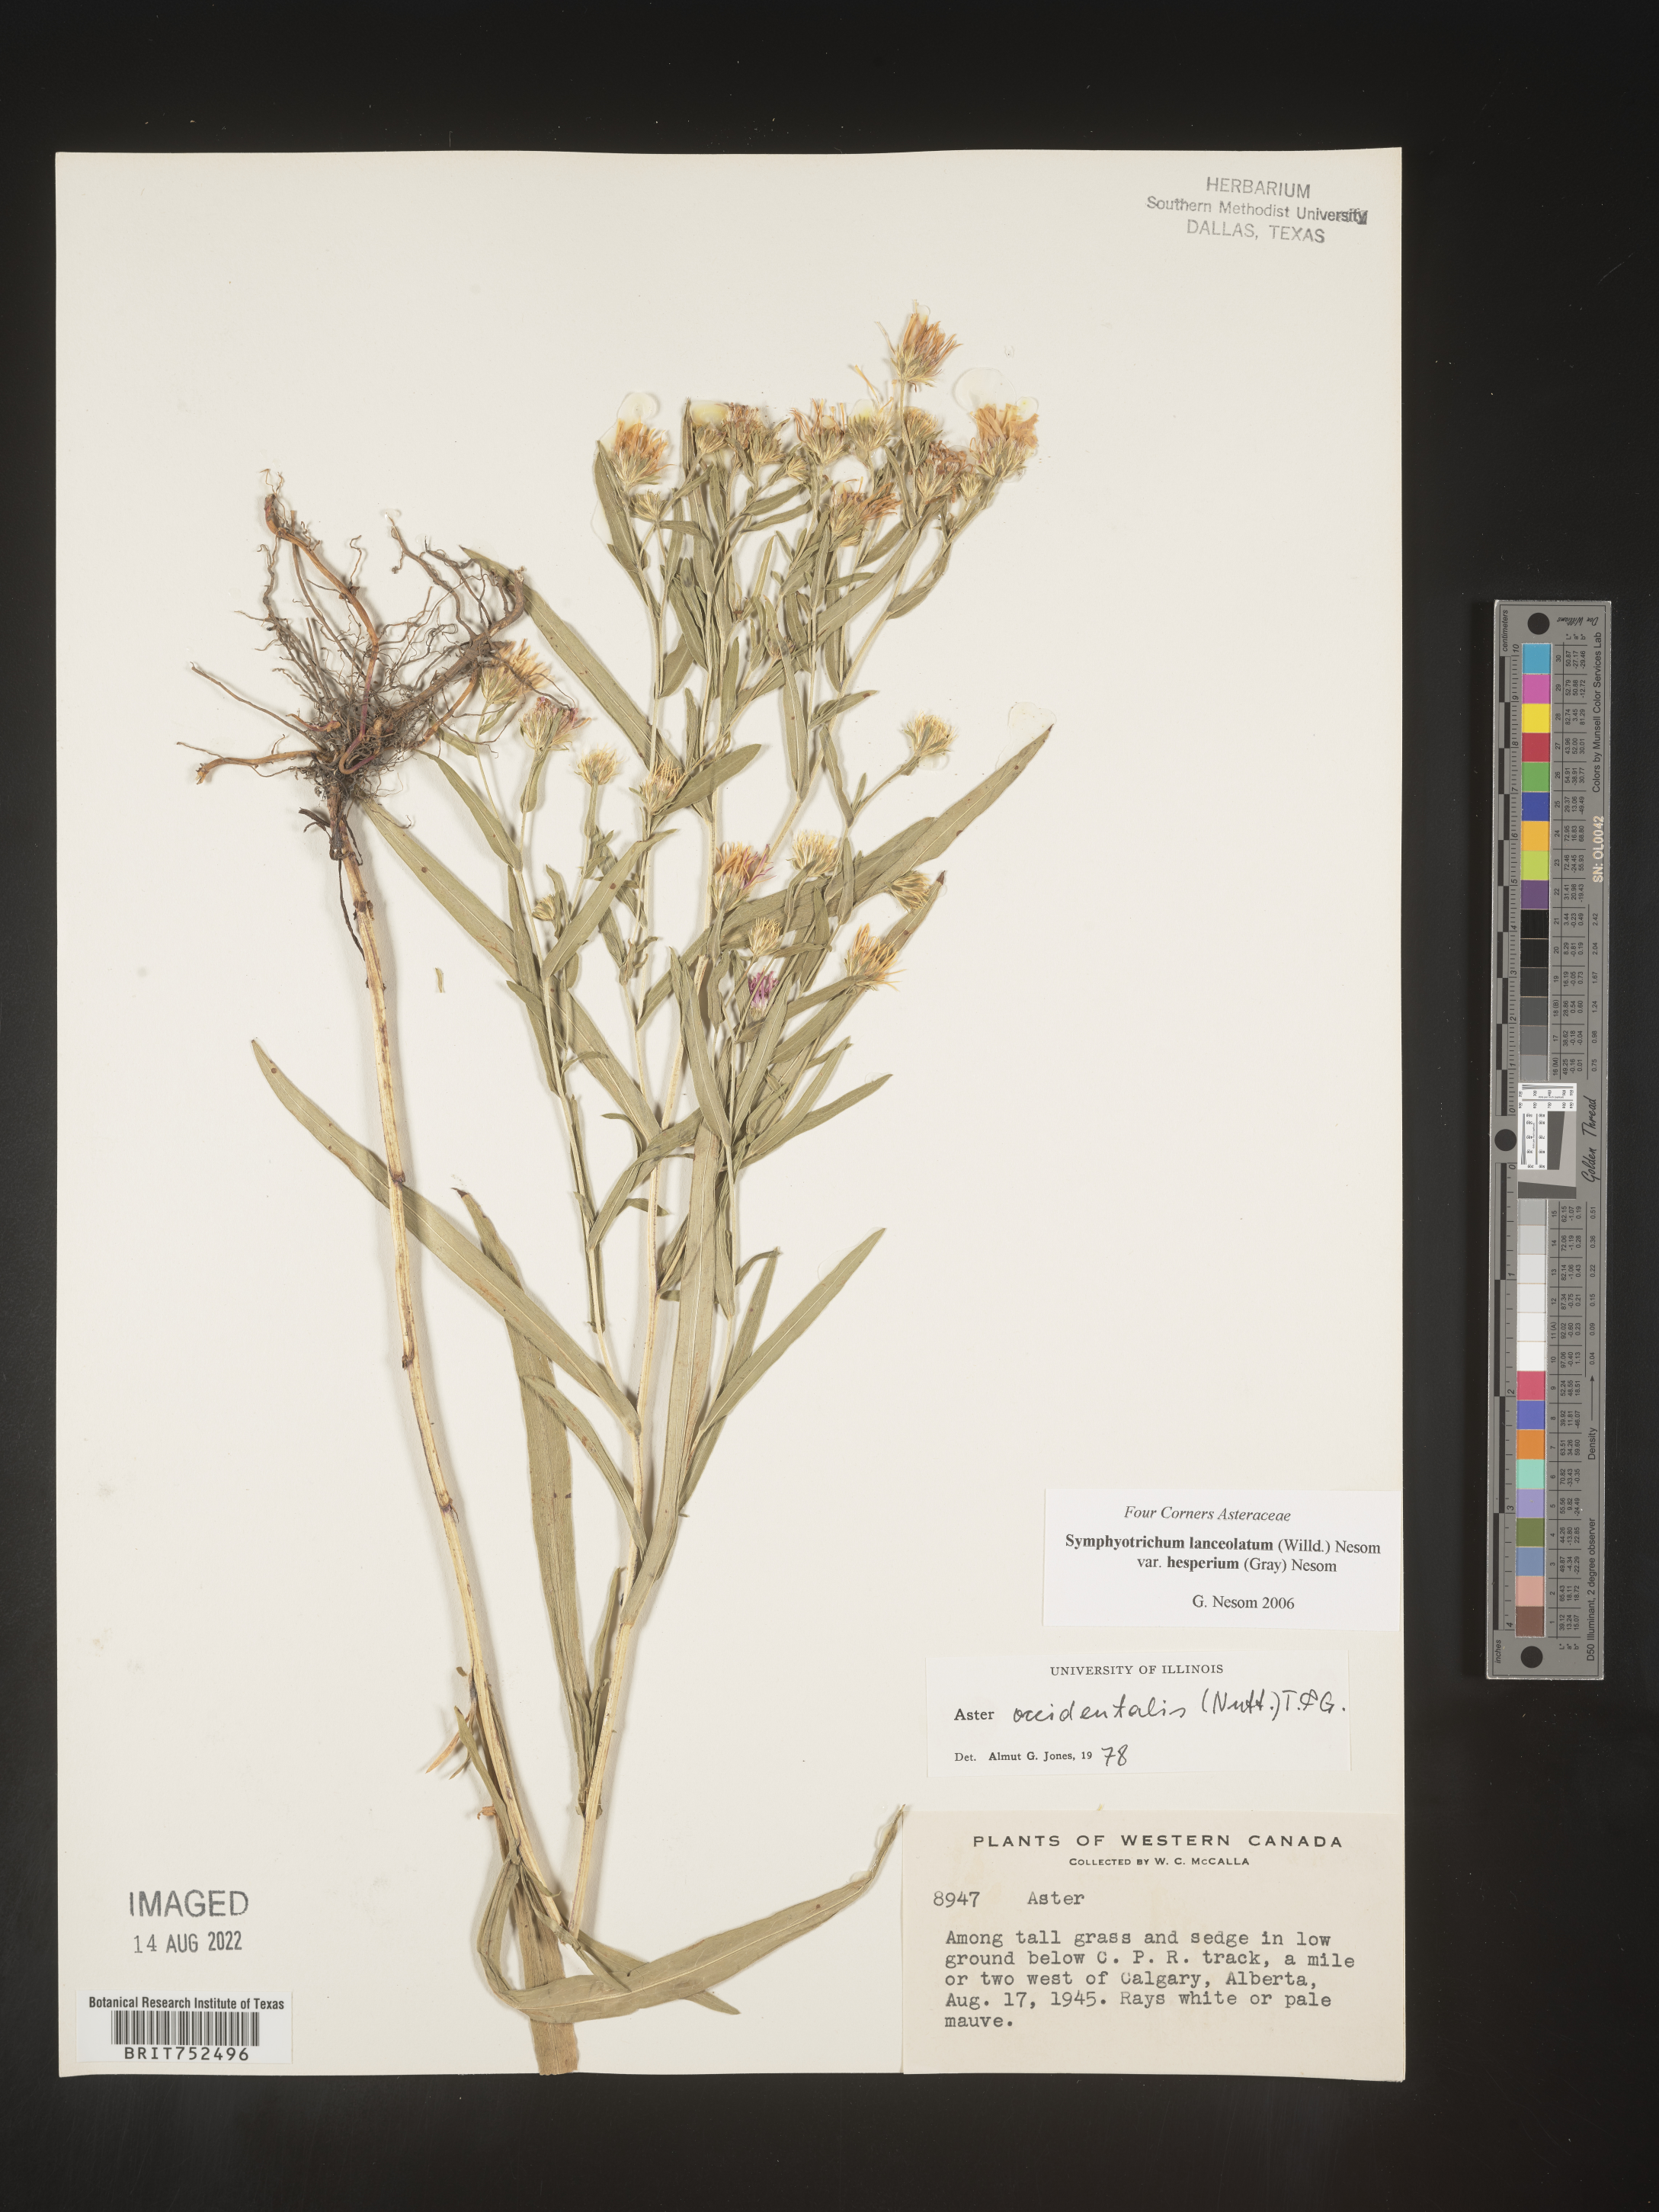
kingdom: Plantae
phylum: Tracheophyta
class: Magnoliopsida
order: Asterales
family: Asteraceae
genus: Symphyotrichum
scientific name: Symphyotrichum lanceolatum
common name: Panicled aster
